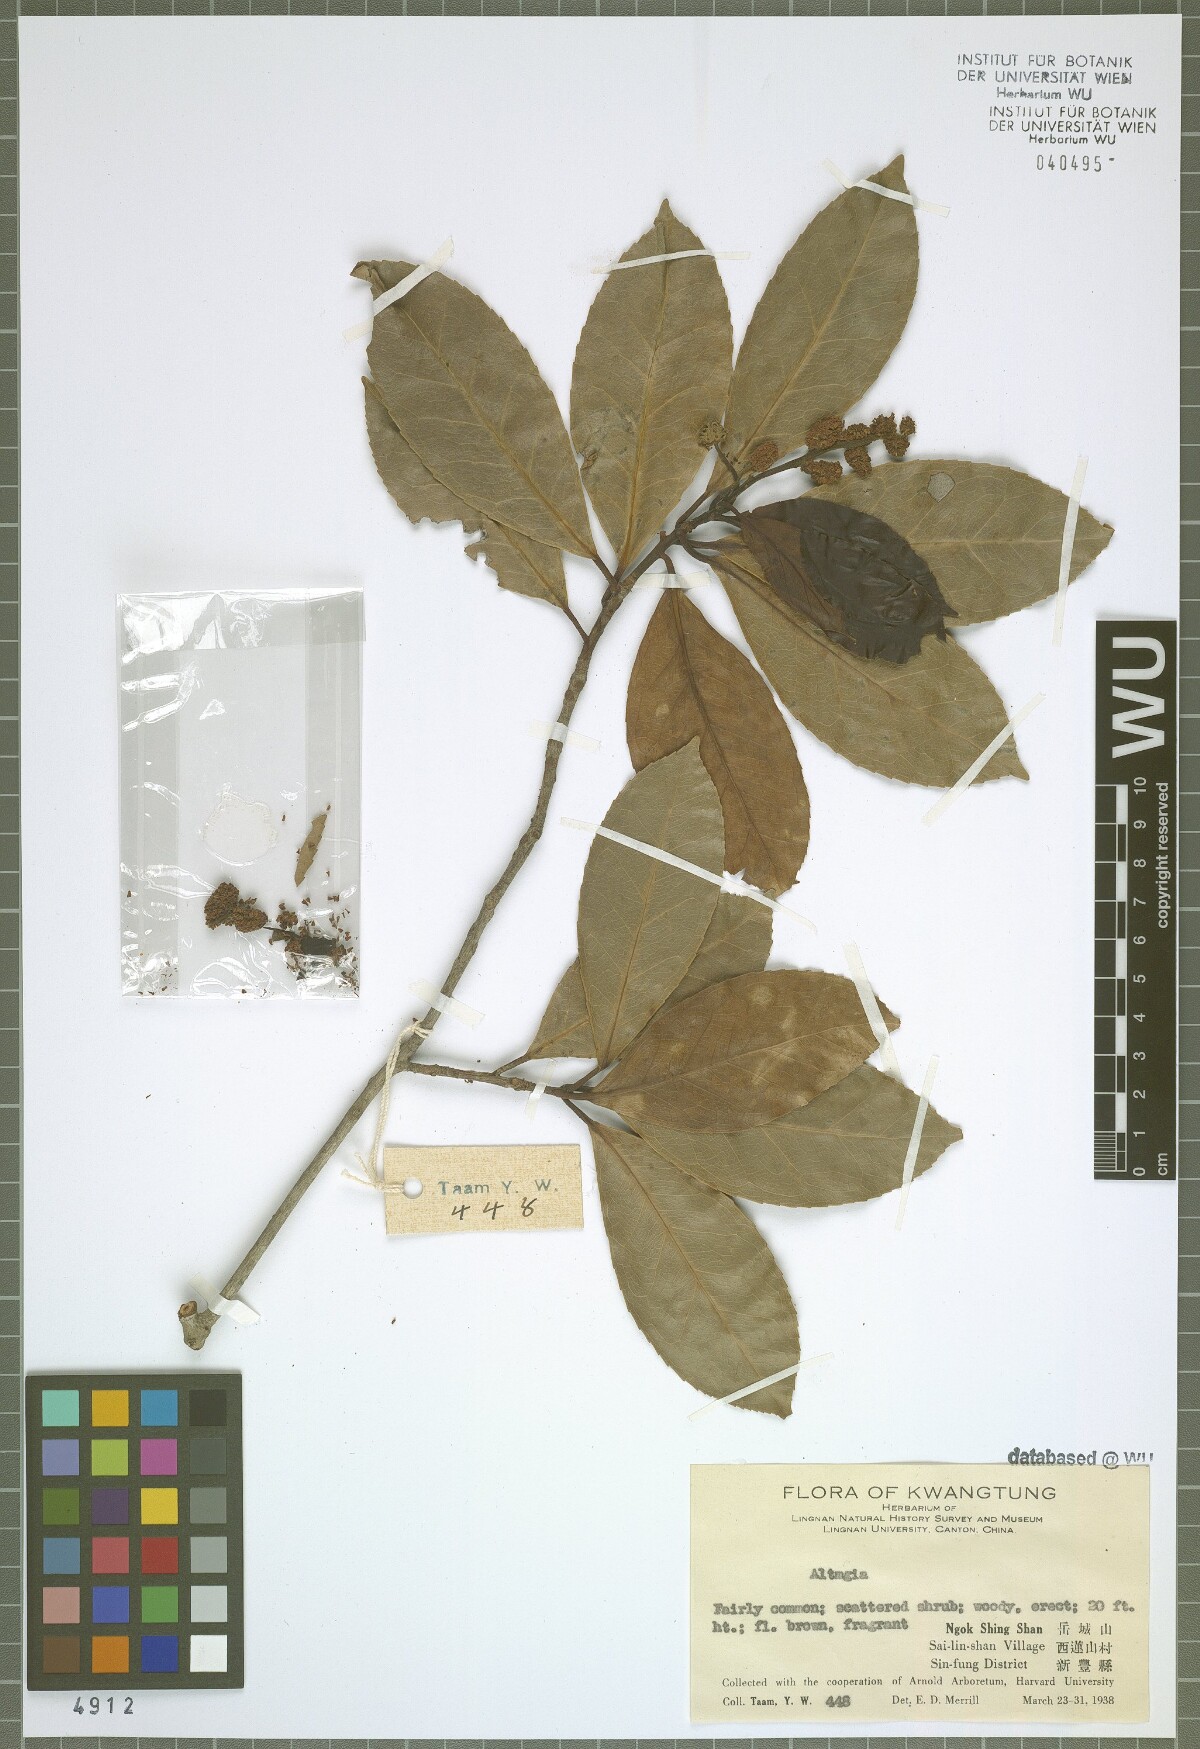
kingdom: Plantae
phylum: Tracheophyta
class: Magnoliopsida
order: Saxifragales
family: Altingiaceae
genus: Liquidambar
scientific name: Liquidambar
